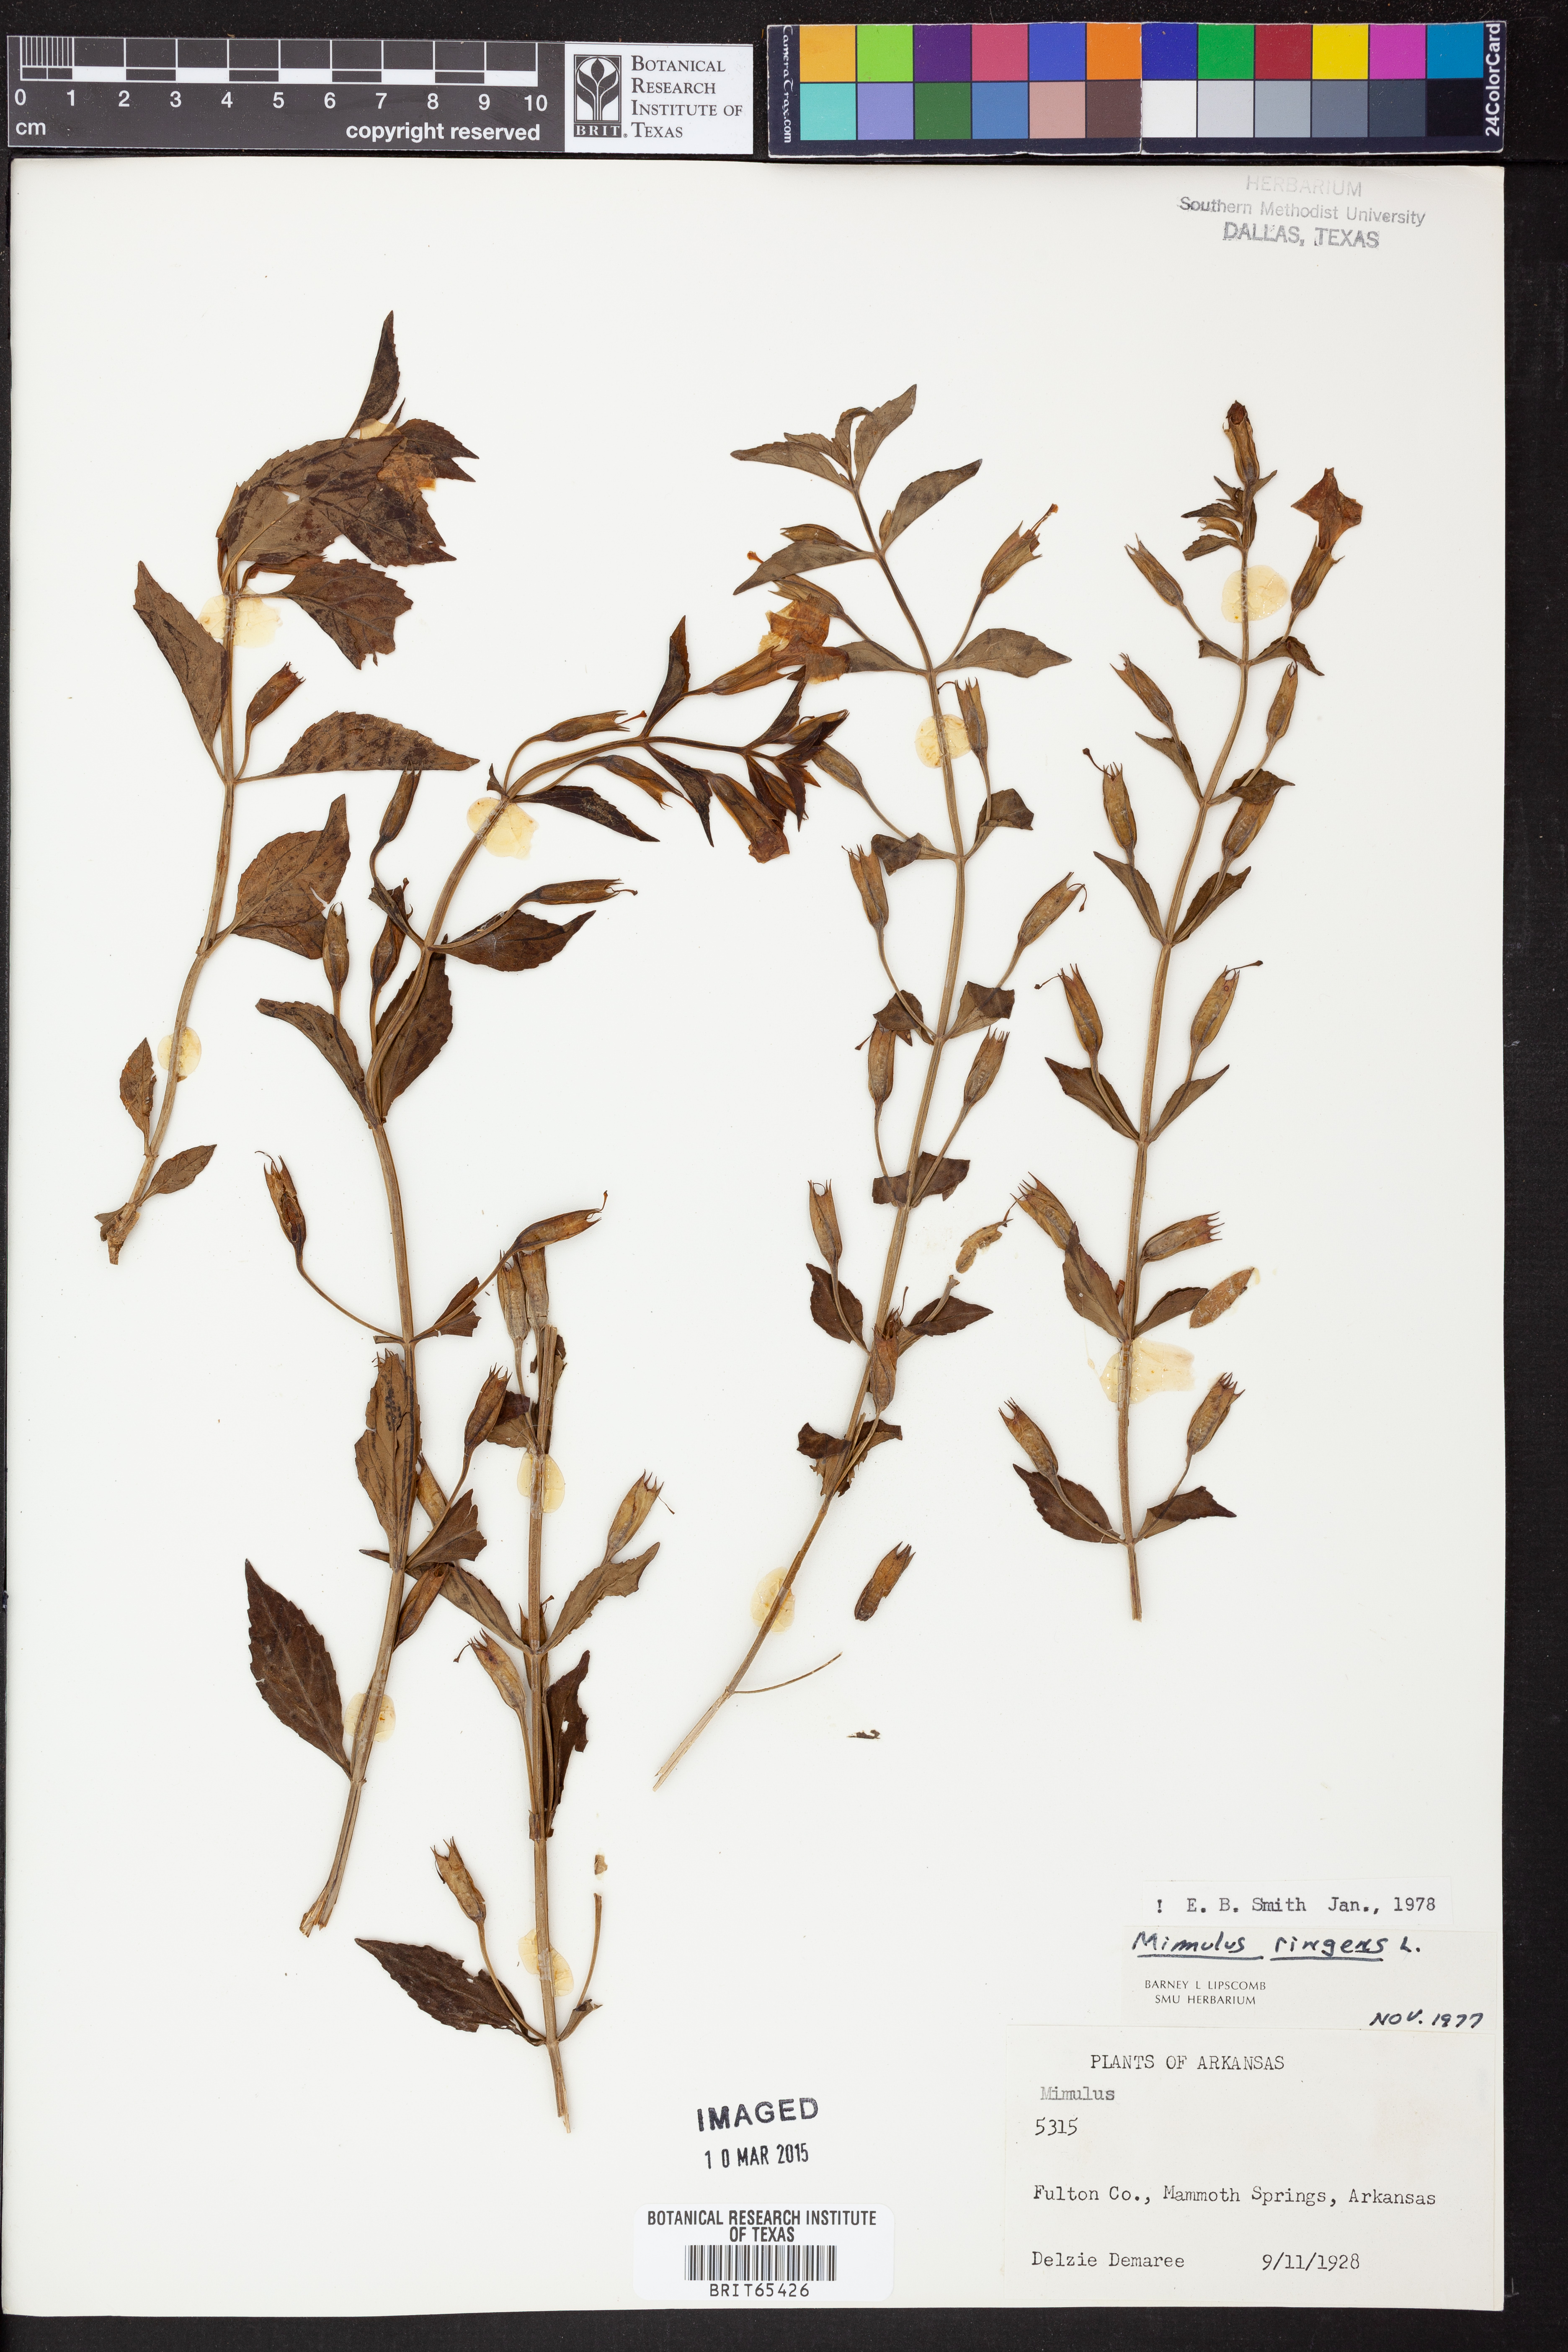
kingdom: Plantae
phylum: Tracheophyta
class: Magnoliopsida
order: Lamiales
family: Phrymaceae
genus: Mimulus
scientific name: Mimulus ringens
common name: Allegheny monkeyflower
